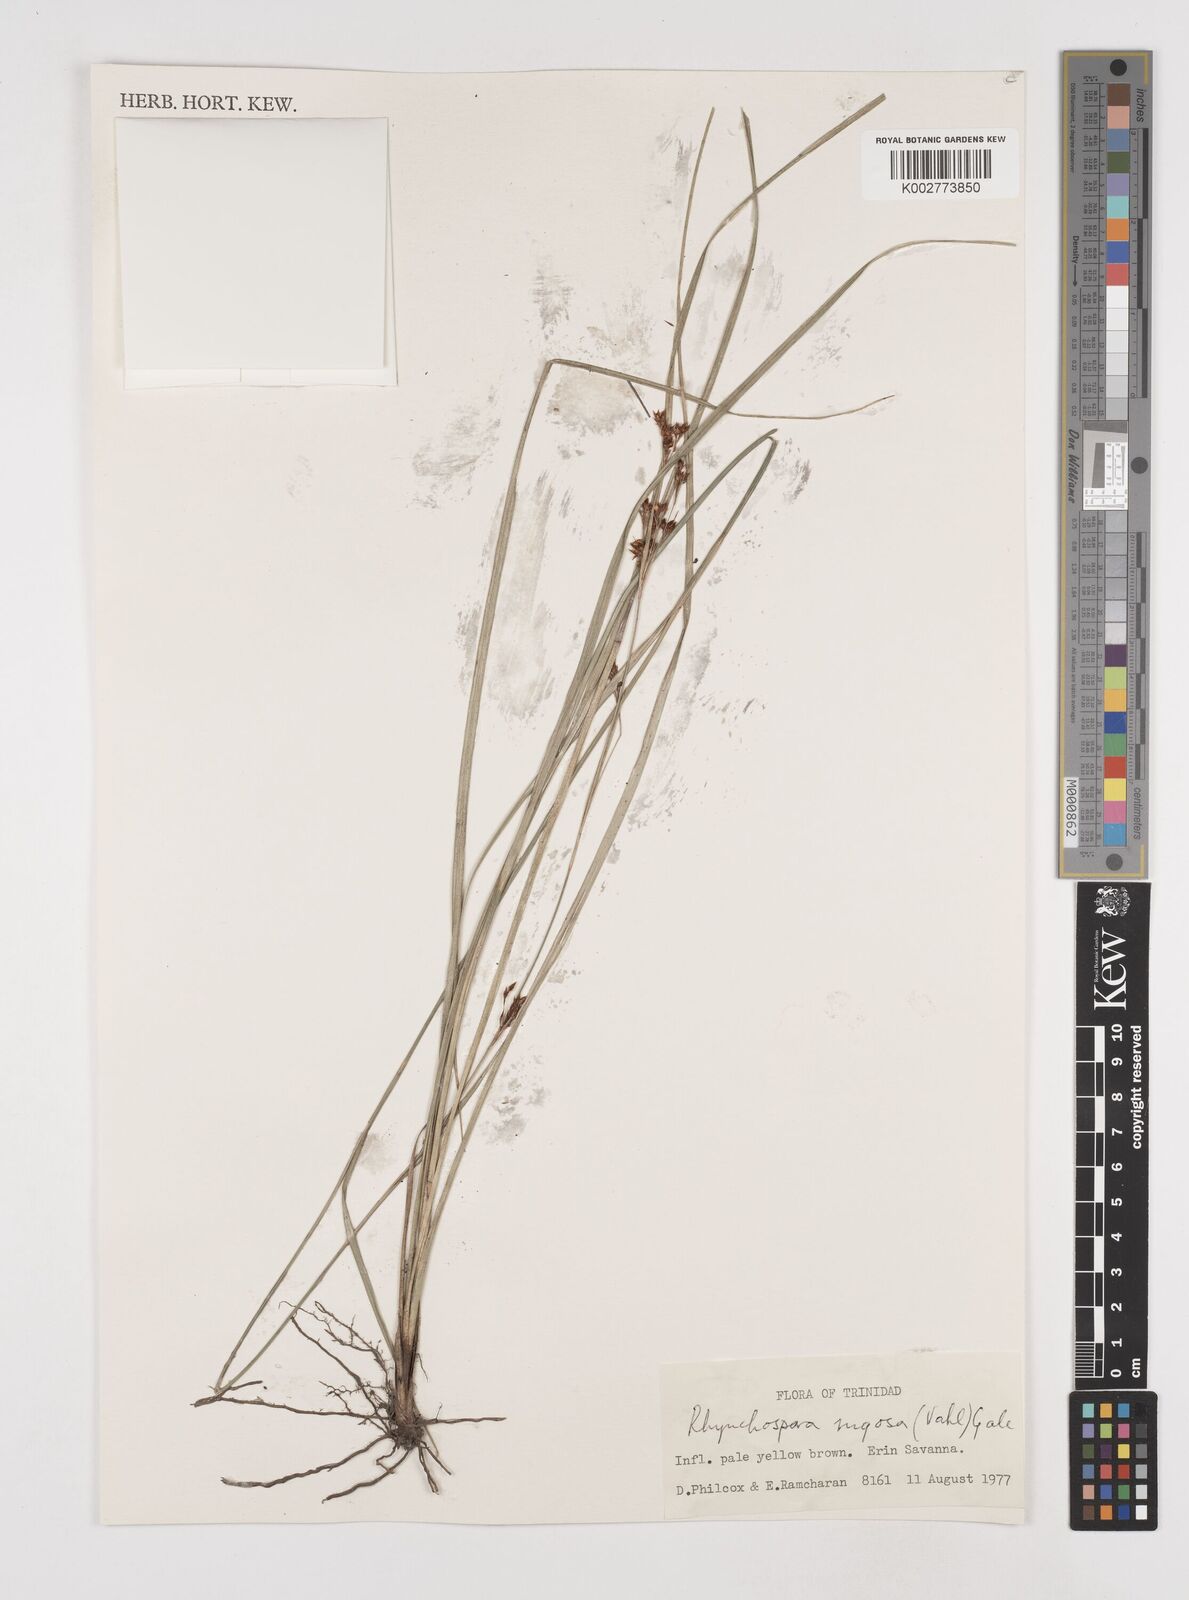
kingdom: Plantae
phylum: Tracheophyta
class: Liliopsida
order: Poales
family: Cyperaceae
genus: Rhynchospora
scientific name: Rhynchospora rugosa
